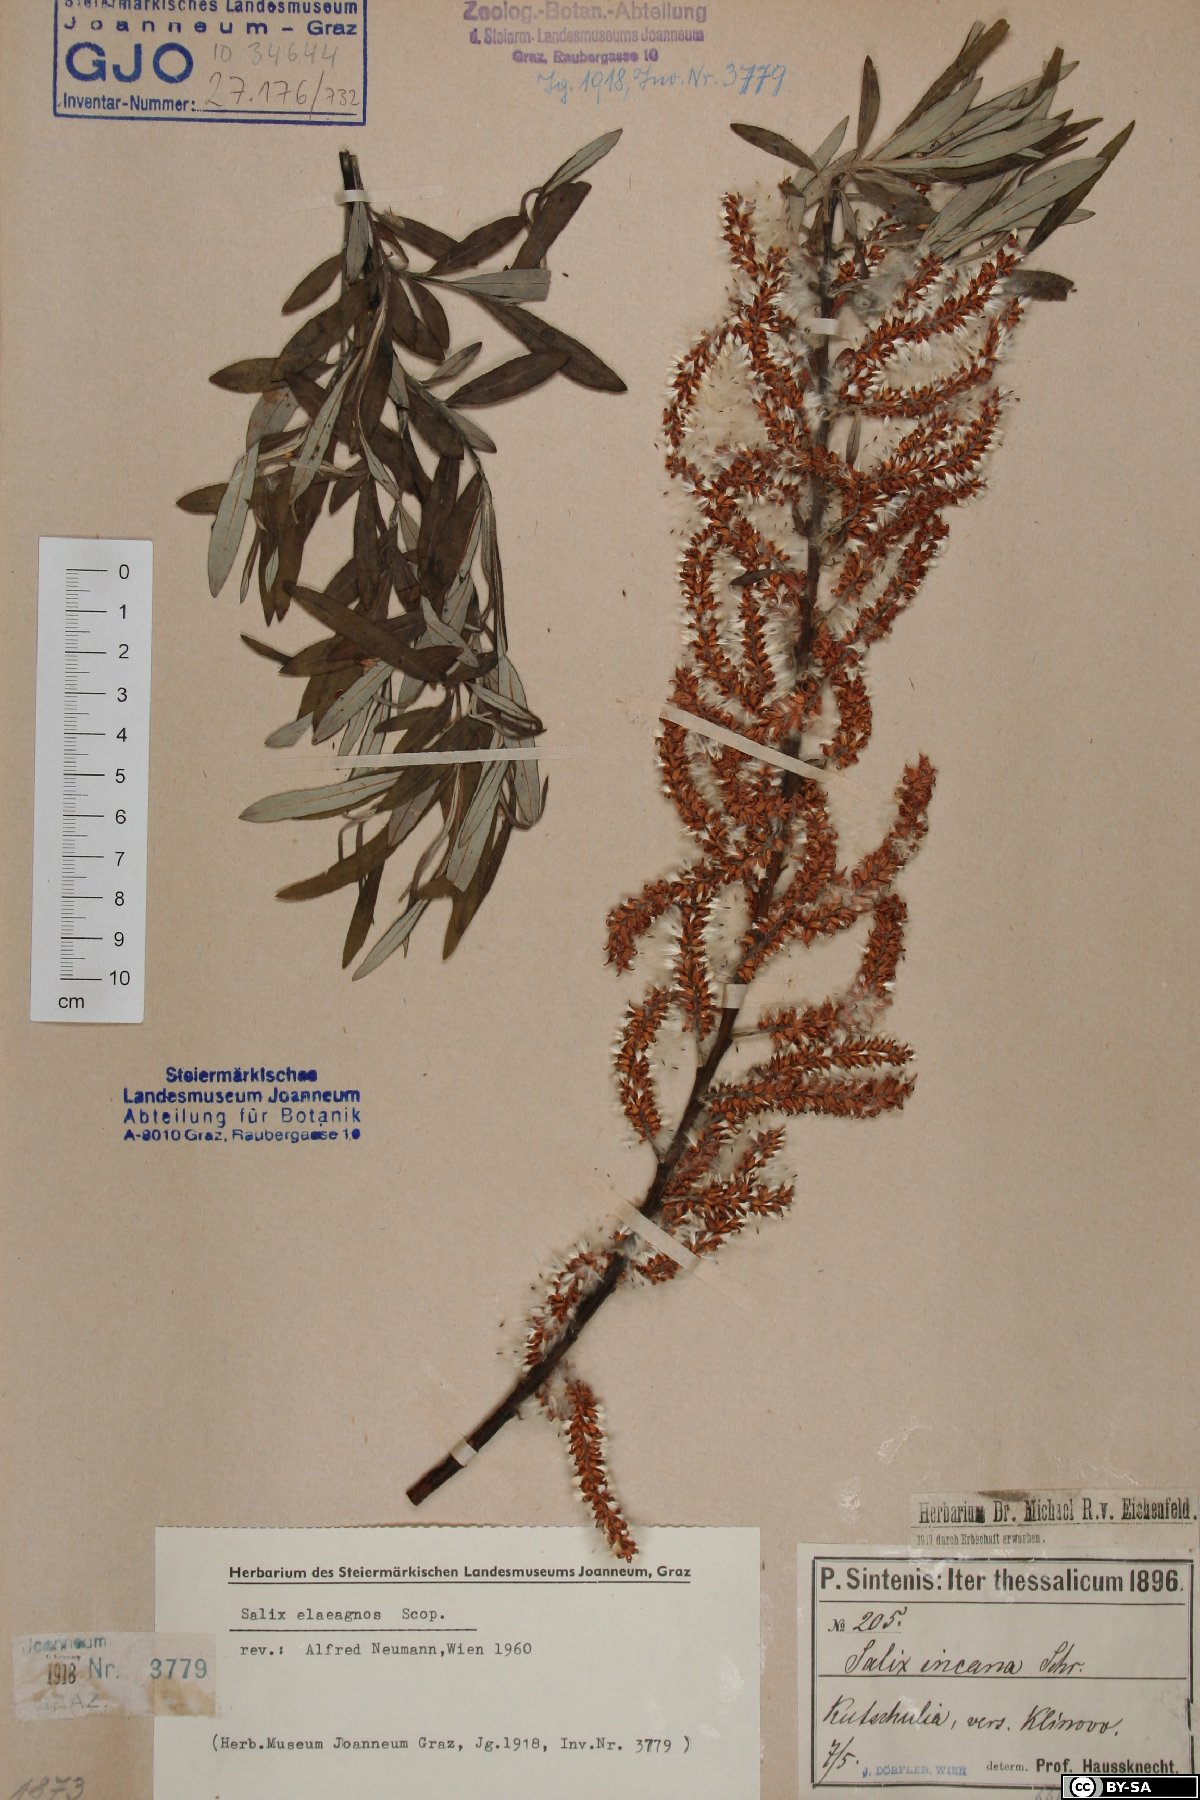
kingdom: Plantae
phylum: Tracheophyta
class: Magnoliopsida
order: Malpighiales
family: Salicaceae
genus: Salix
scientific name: Salix eleagnos
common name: Elaeagnus willow
